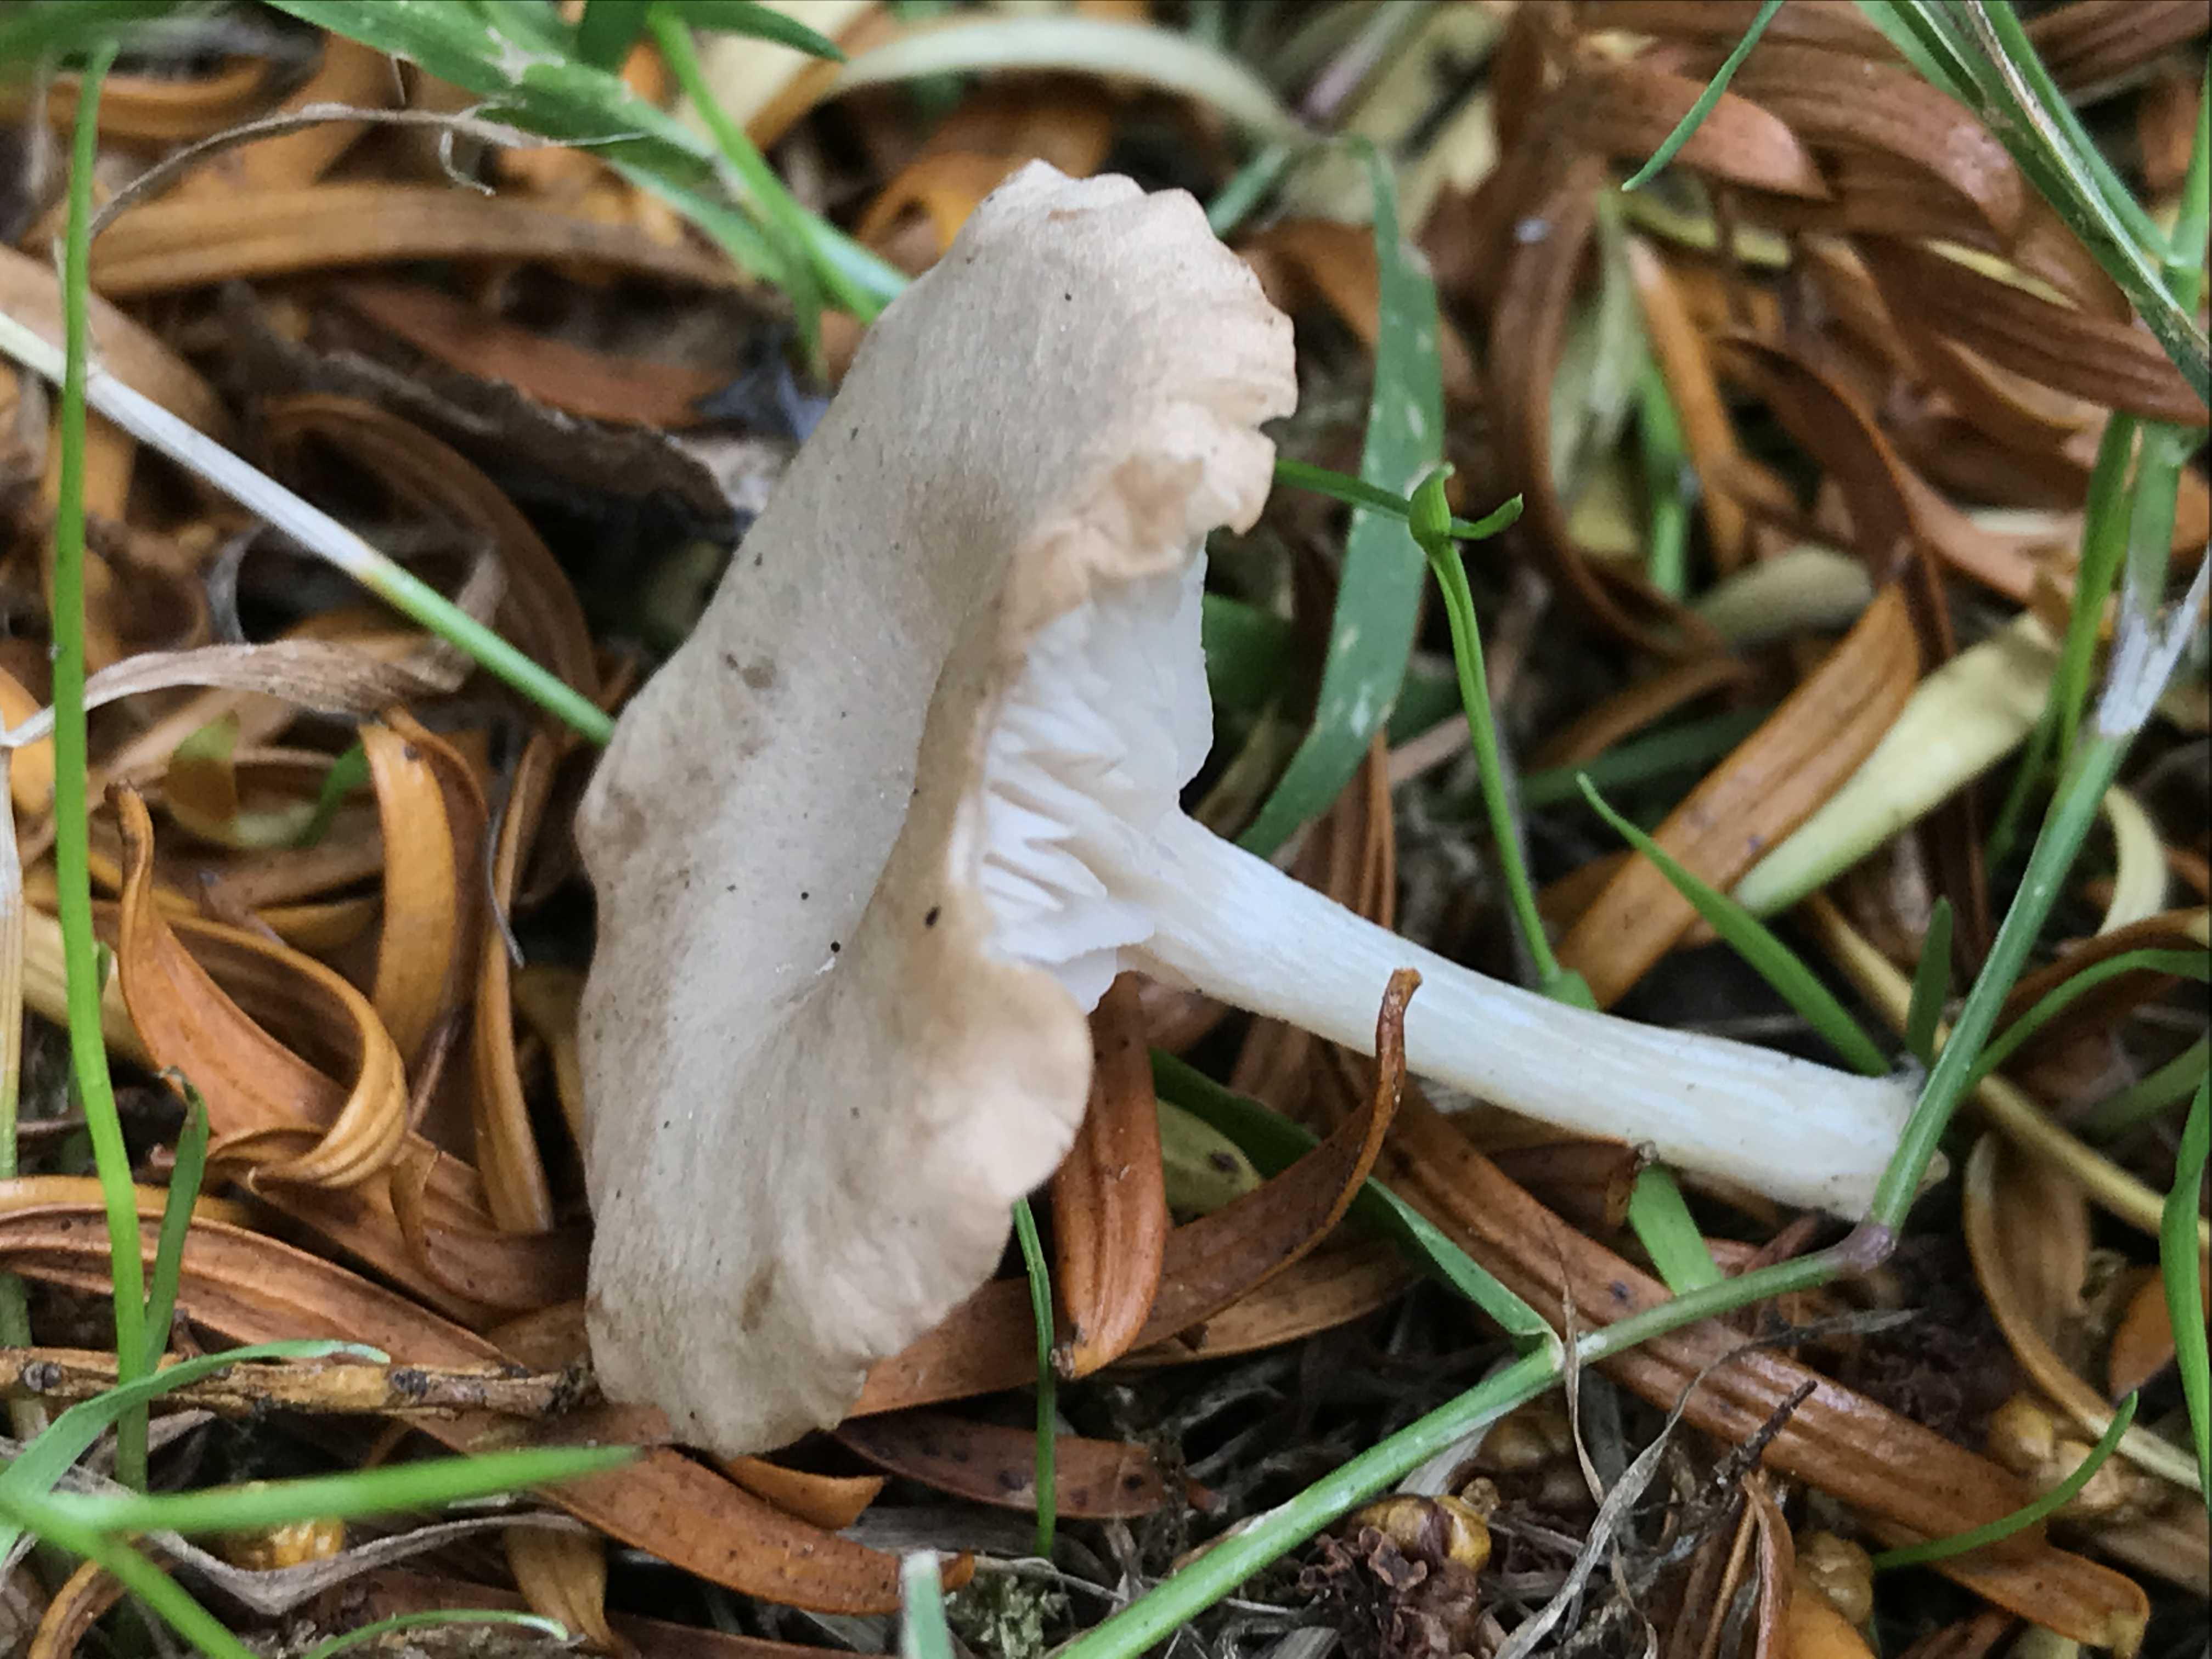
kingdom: Fungi
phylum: Basidiomycota
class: Agaricomycetes
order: Agaricales
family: Entolomataceae
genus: Entoloma
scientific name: Entoloma neglectum
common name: bleg rødblad
